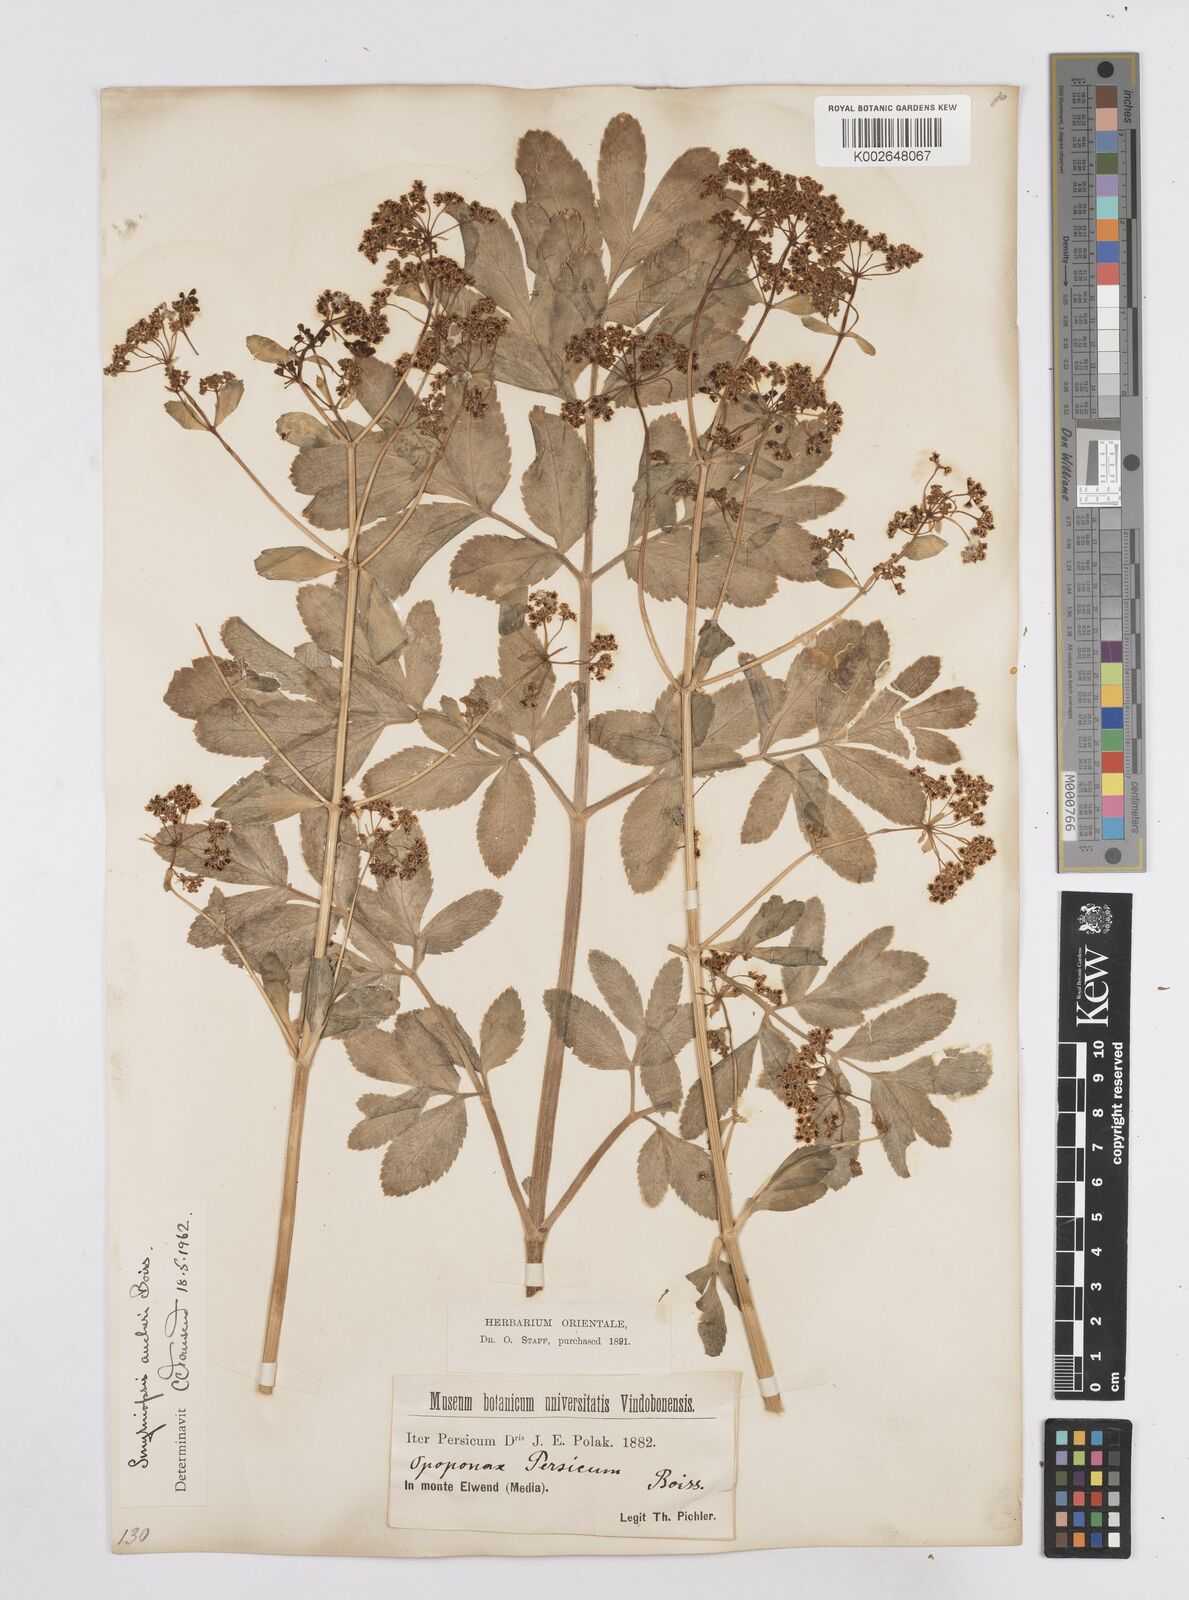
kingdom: Plantae
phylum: Tracheophyta
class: Magnoliopsida
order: Apiales
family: Apiaceae
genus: Smyrniopsis
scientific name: Smyrniopsis aucheri
